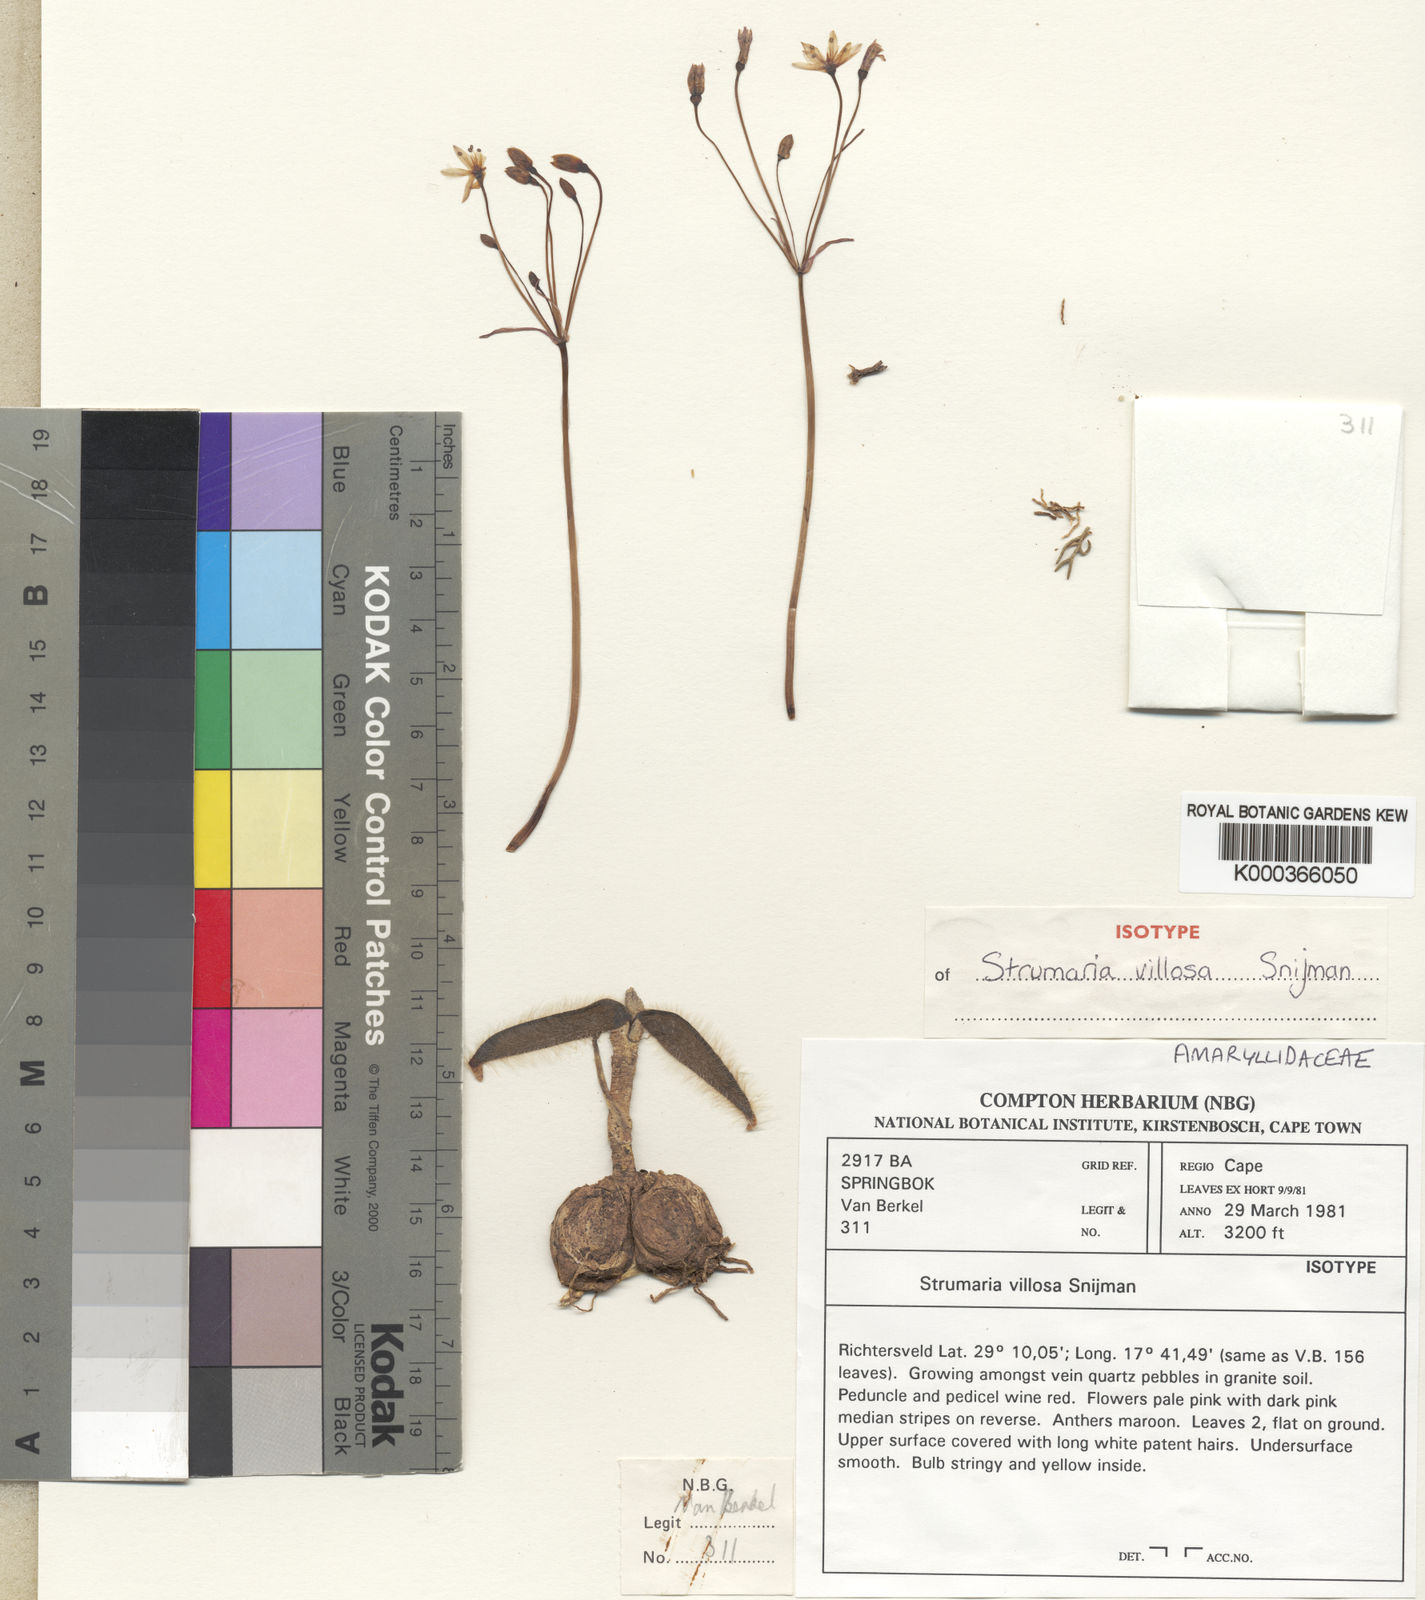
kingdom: Plantae
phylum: Tracheophyta
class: Liliopsida
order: Asparagales
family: Amaryllidaceae
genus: Strumaria
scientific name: Strumaria villosa
